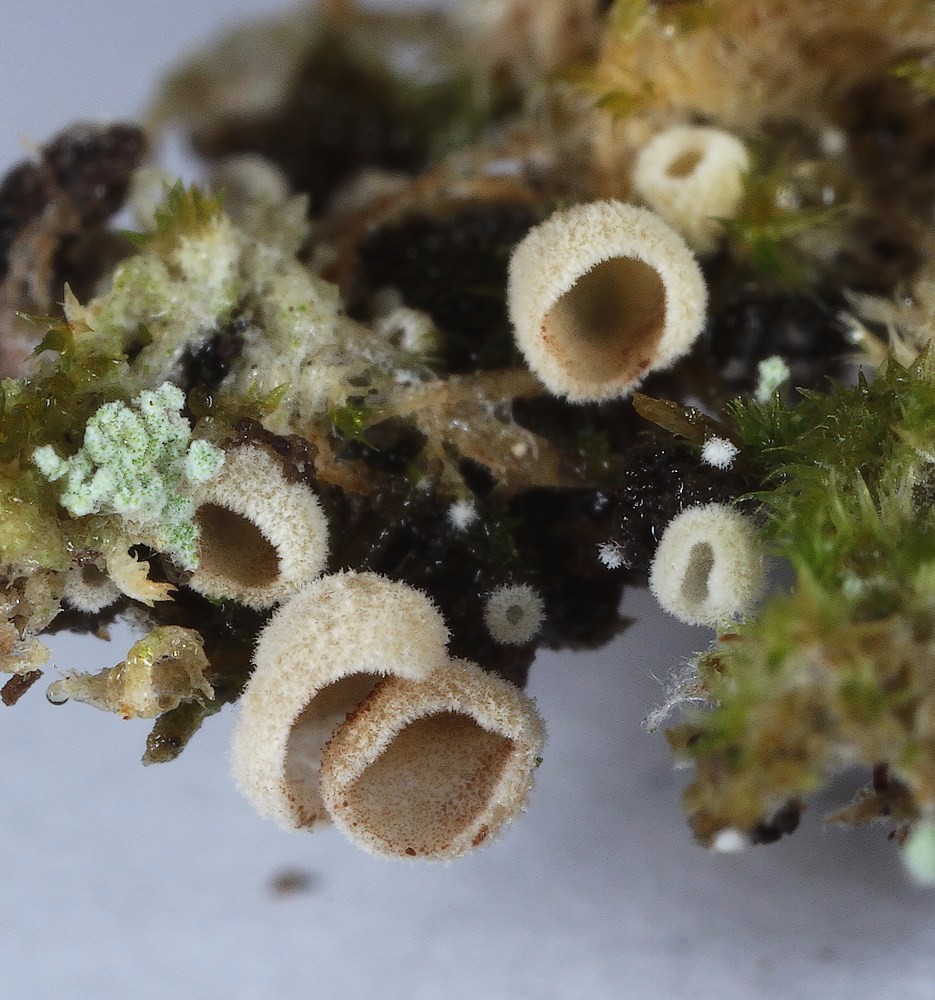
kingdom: Fungi
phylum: Basidiomycota
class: Agaricomycetes
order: Agaricales
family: Chromocyphellaceae
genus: Chromocyphella
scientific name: Chromocyphella muscicola
